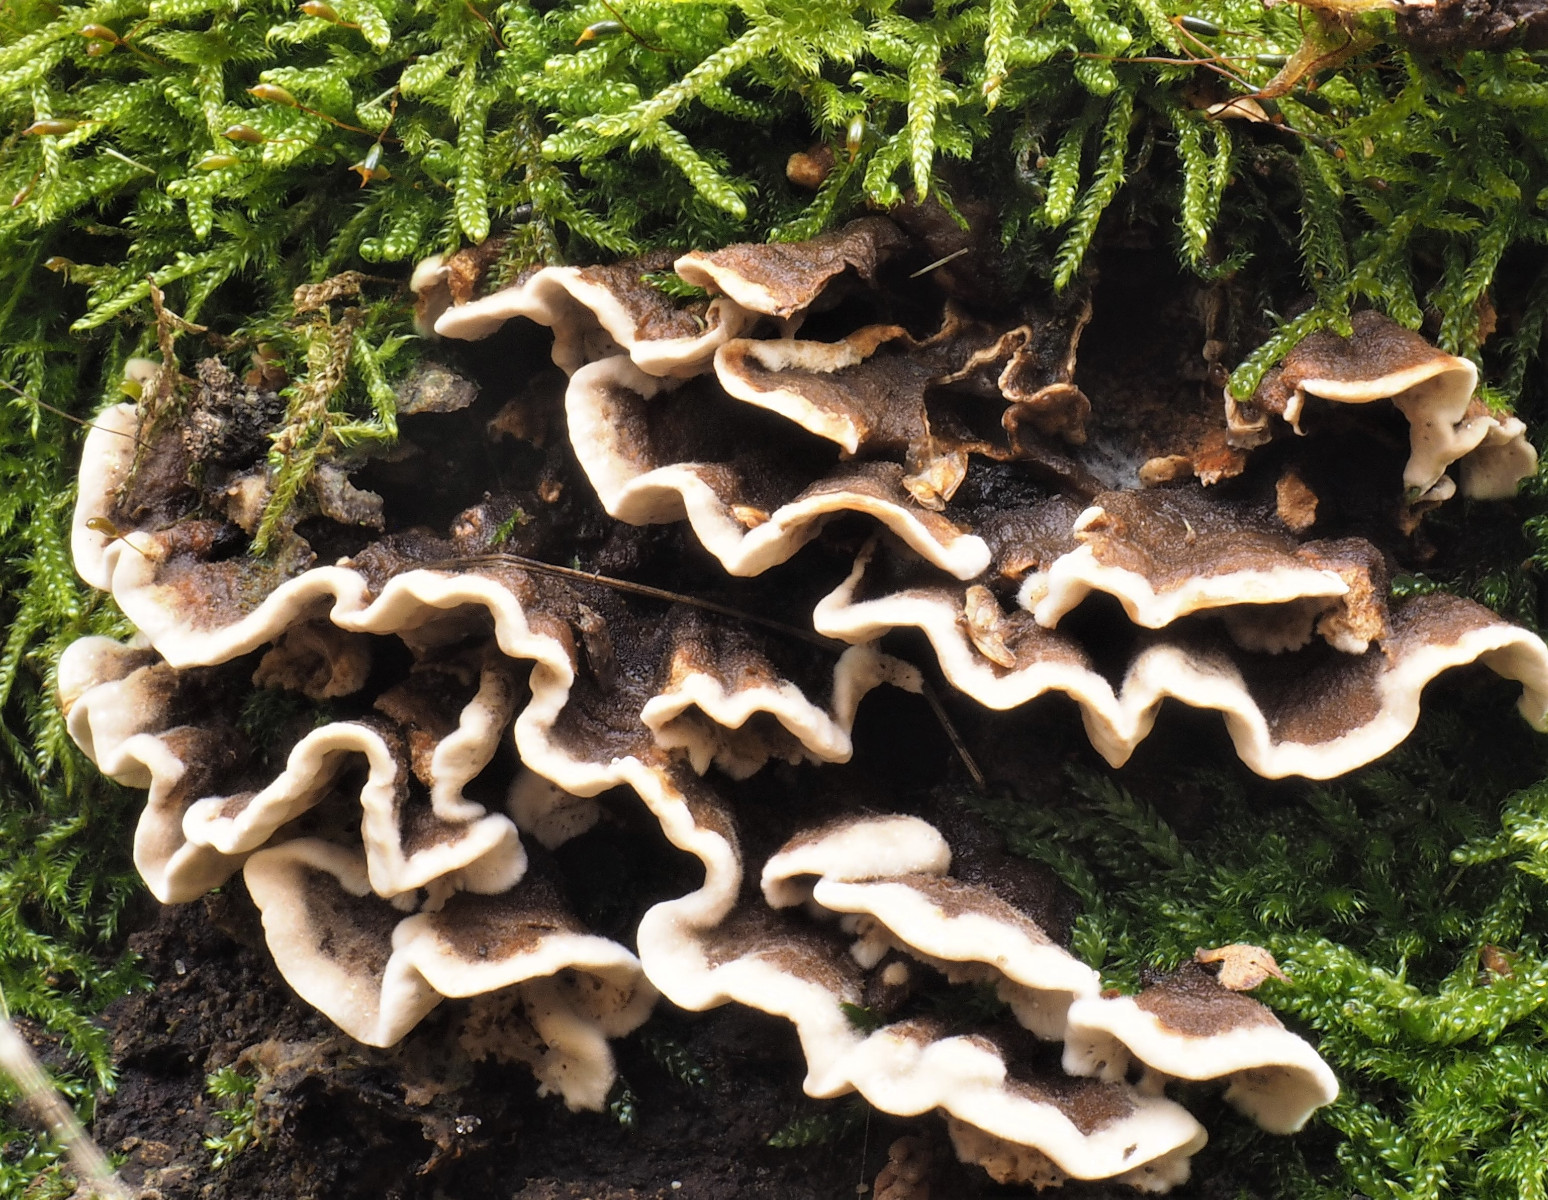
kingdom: Fungi
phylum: Basidiomycota
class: Agaricomycetes
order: Russulales
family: Hericiaceae
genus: Laxitextum
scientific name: Laxitextum bicolor
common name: tvefarvet filtskind
